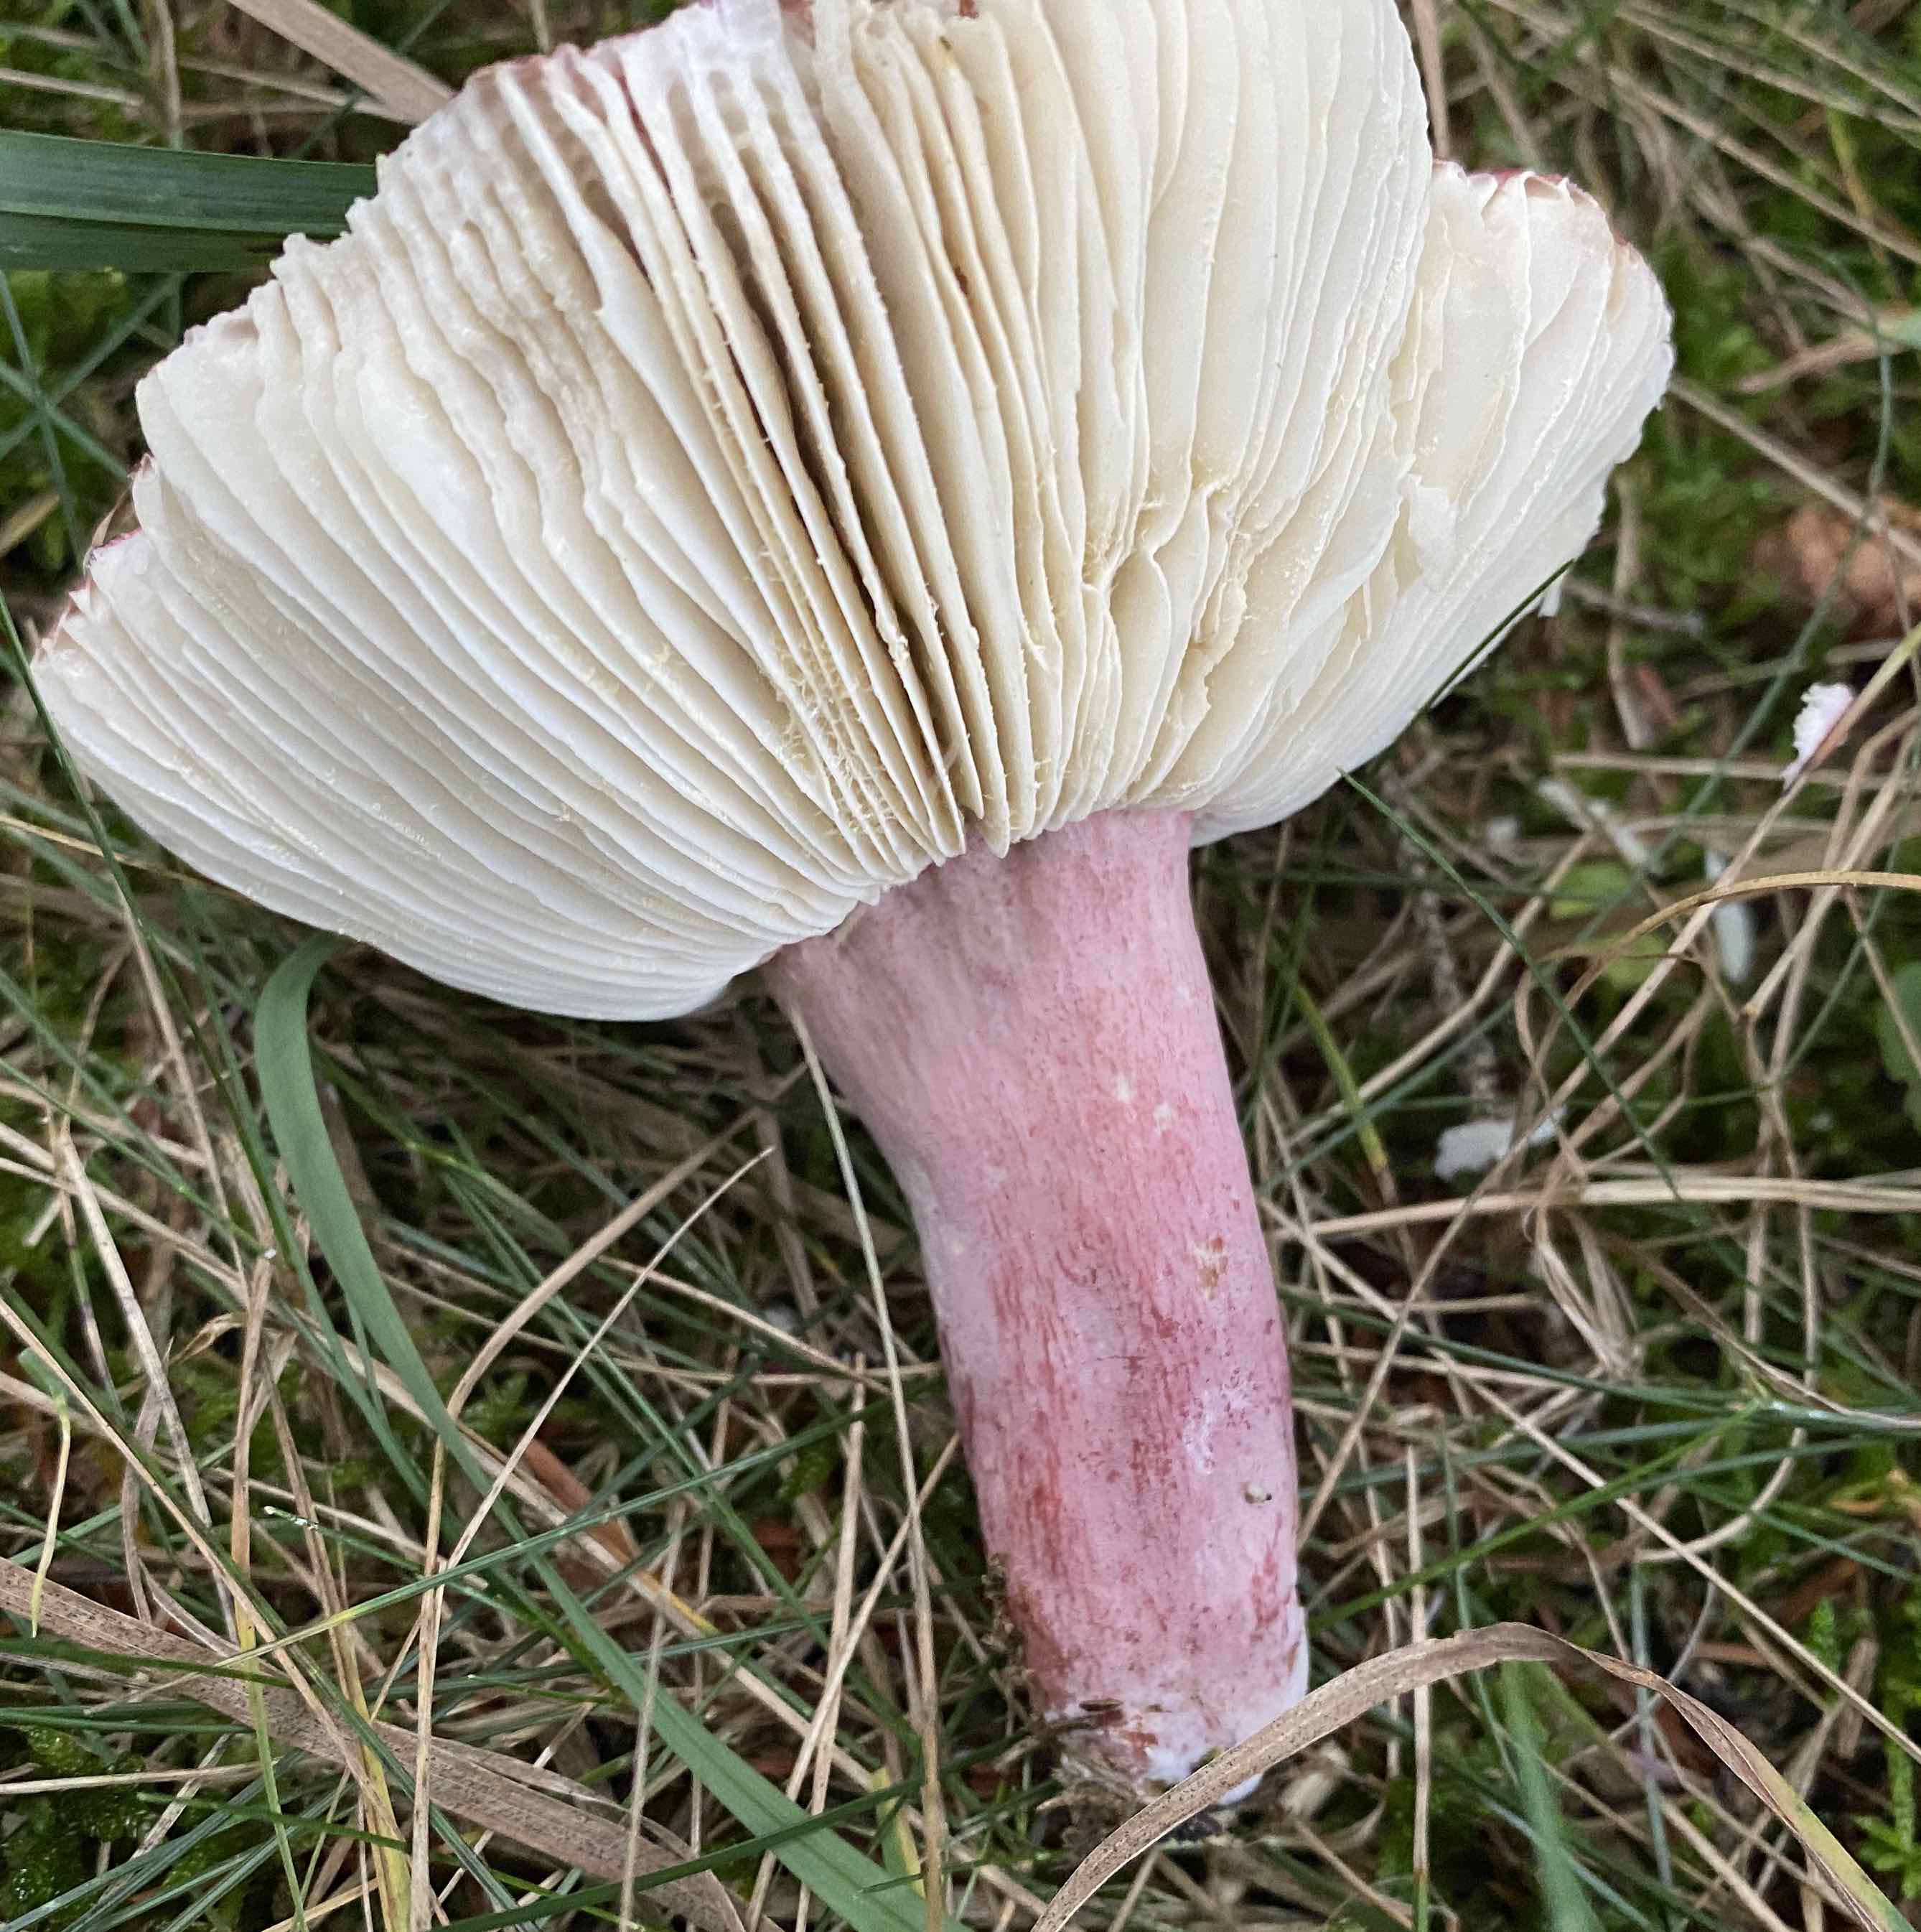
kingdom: Fungi
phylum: Basidiomycota
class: Agaricomycetes
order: Russulales
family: Russulaceae
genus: Russula
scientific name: Russula queletii
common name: Quélets skørhat
